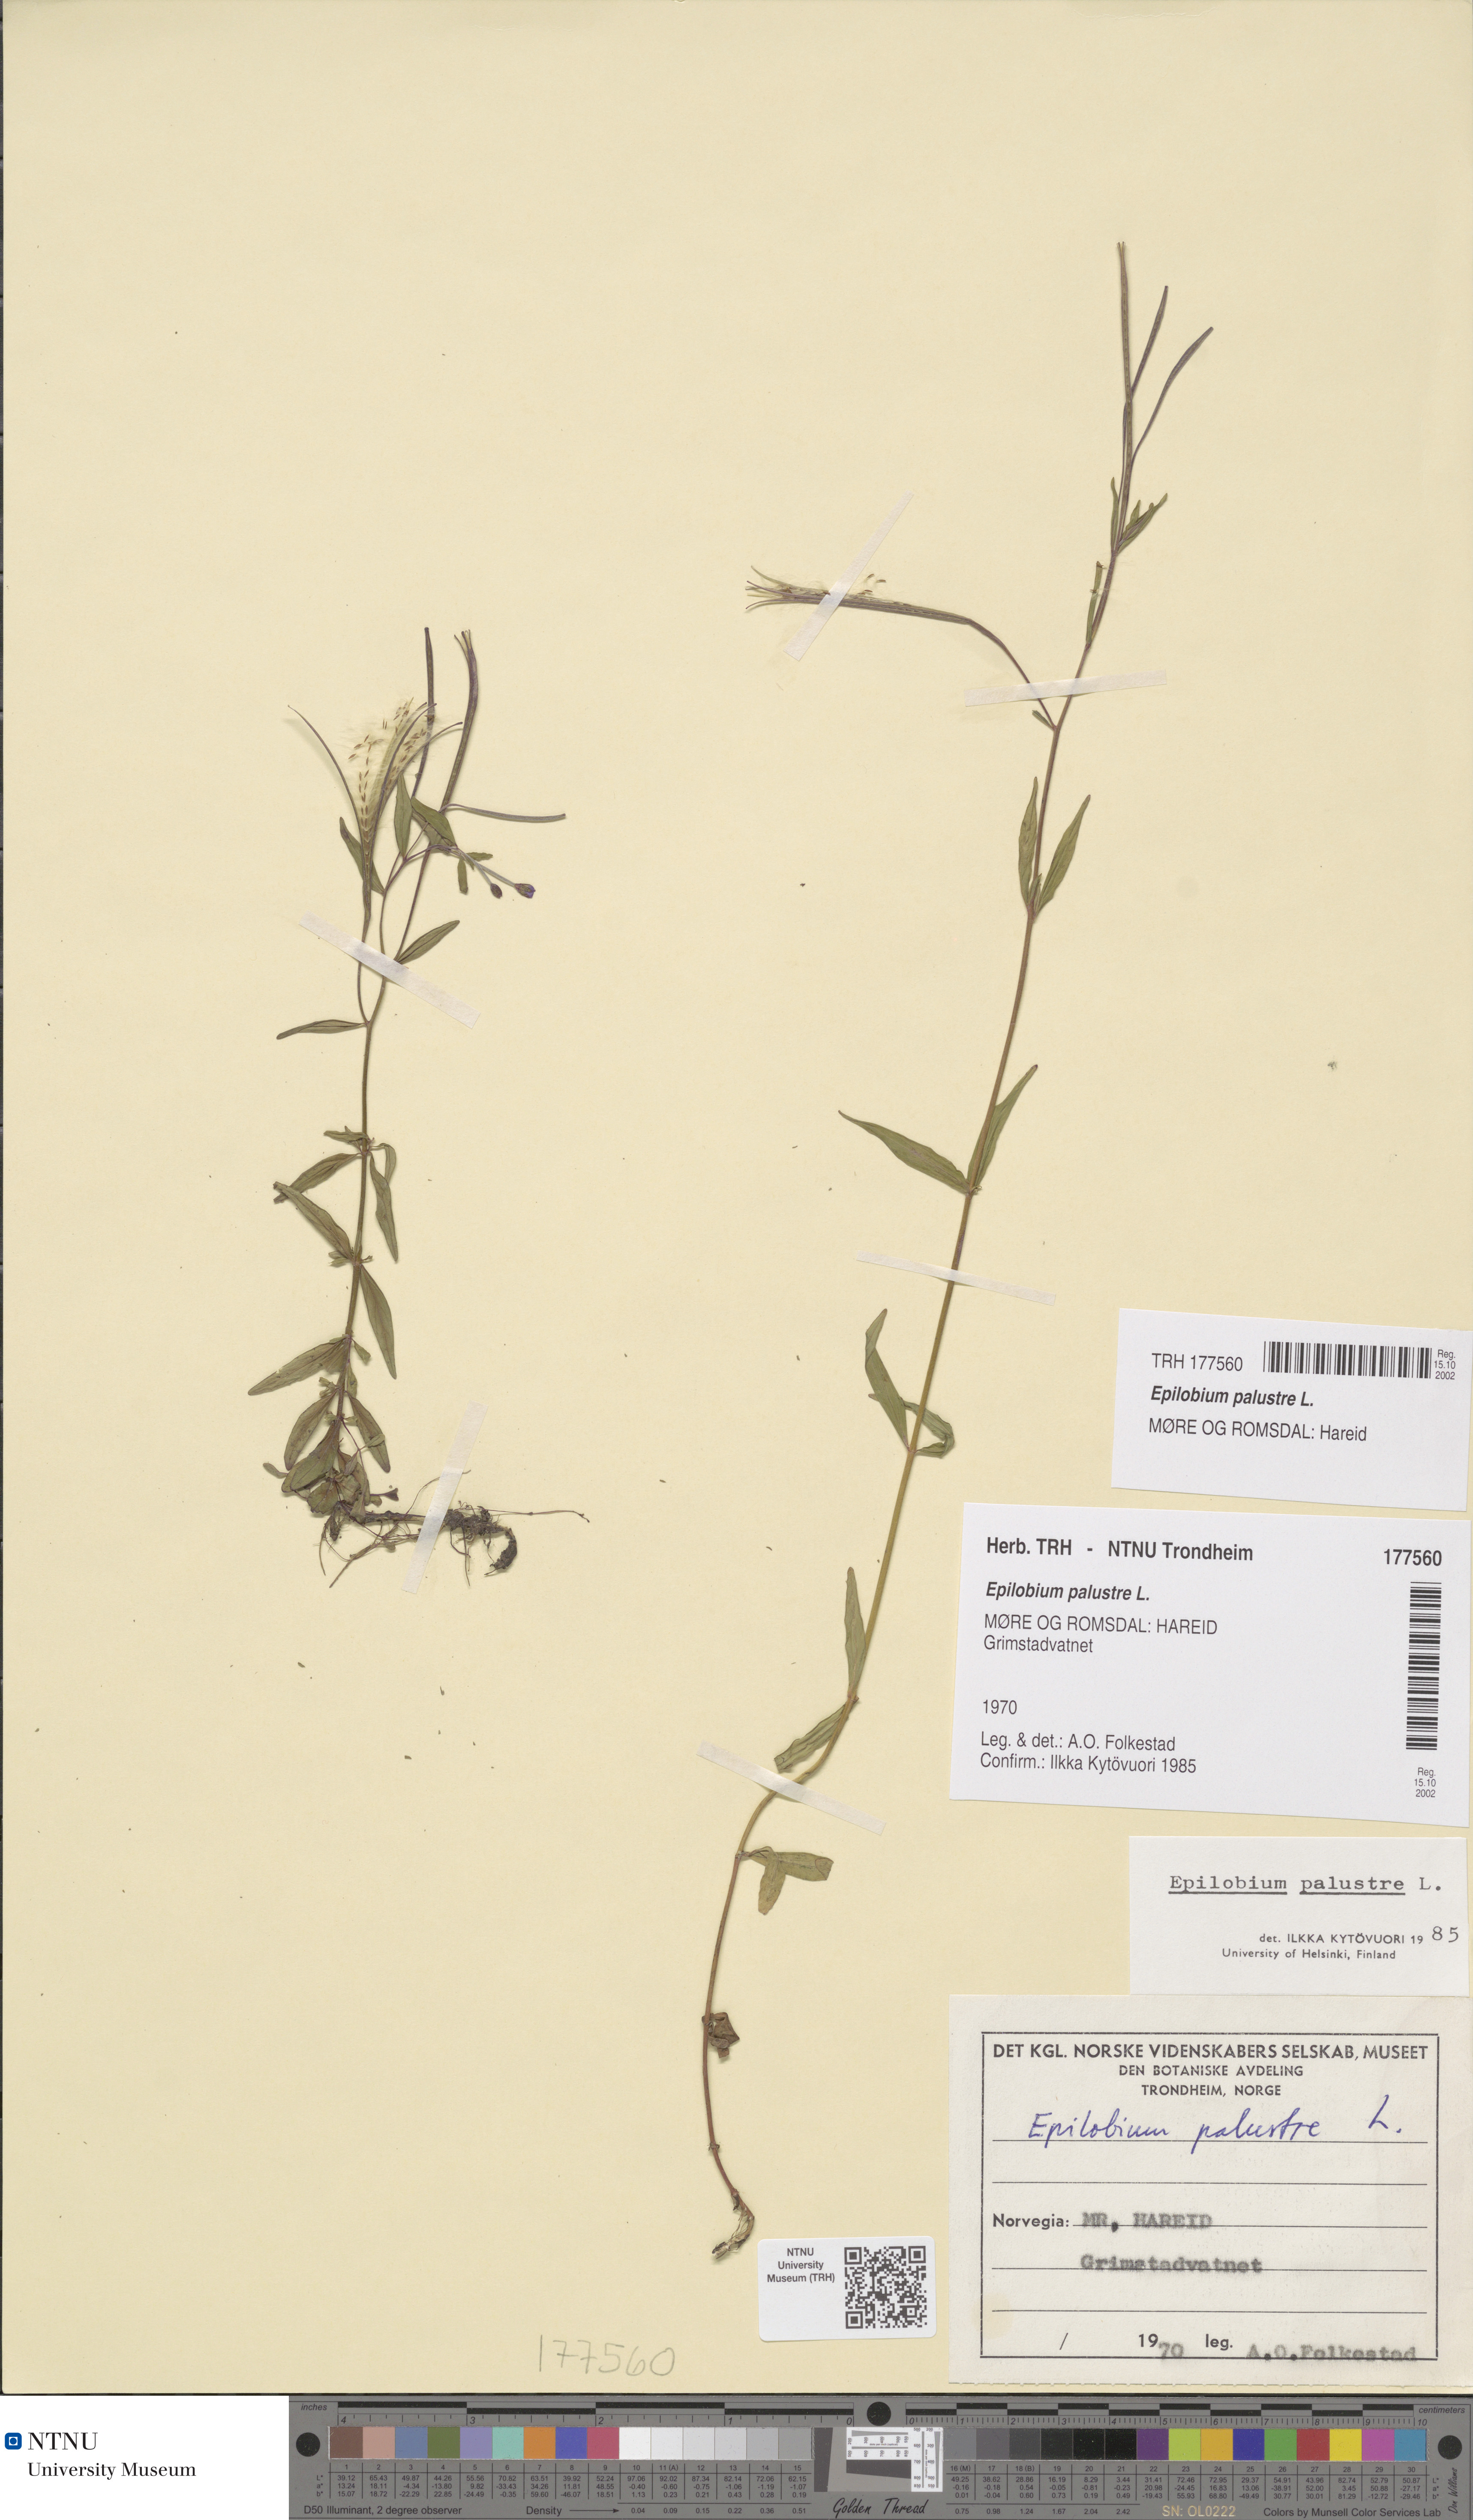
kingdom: Plantae
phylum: Tracheophyta
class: Magnoliopsida
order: Myrtales
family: Onagraceae
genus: Epilobium
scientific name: Epilobium palustre
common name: Marsh willowherb
